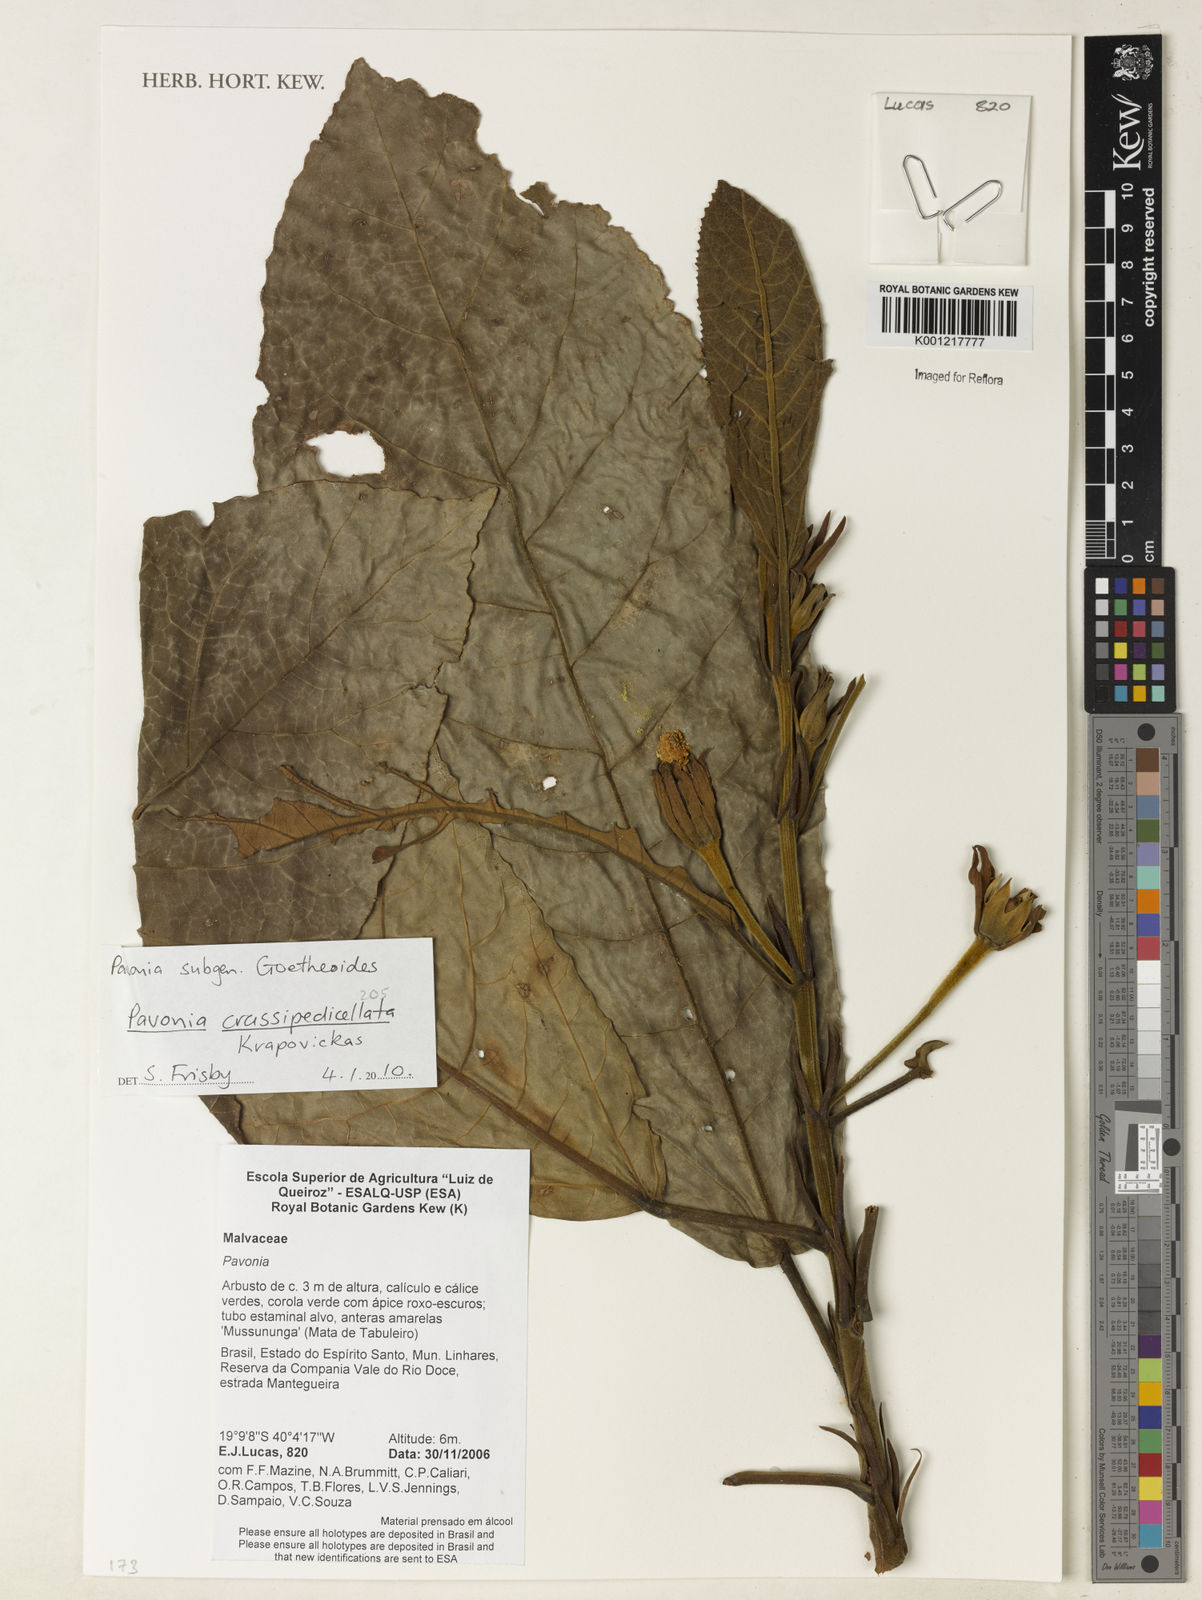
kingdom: Plantae
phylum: Tracheophyta
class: Magnoliopsida
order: Malvales
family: Malvaceae
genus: Pavonia
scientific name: Pavonia crassipedicellata
